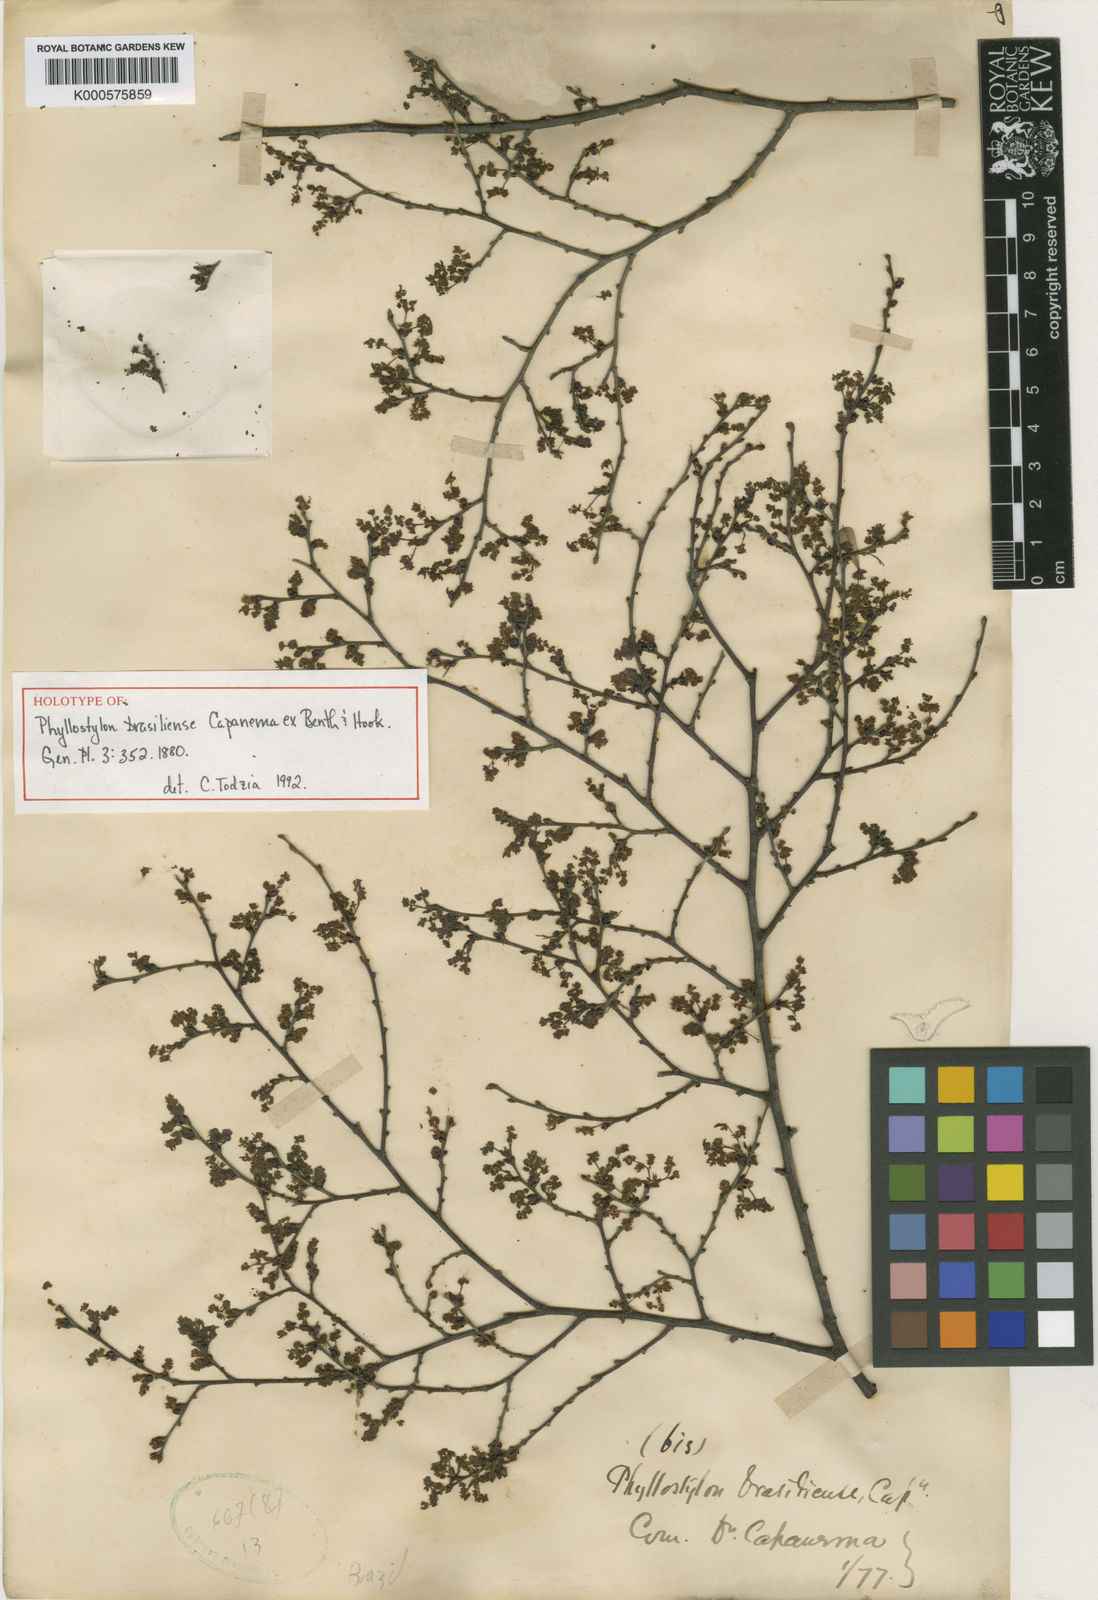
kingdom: Plantae
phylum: Tracheophyta
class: Magnoliopsida
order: Rosales
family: Ulmaceae
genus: Phyllostylon
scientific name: Phyllostylon brasiliensis
